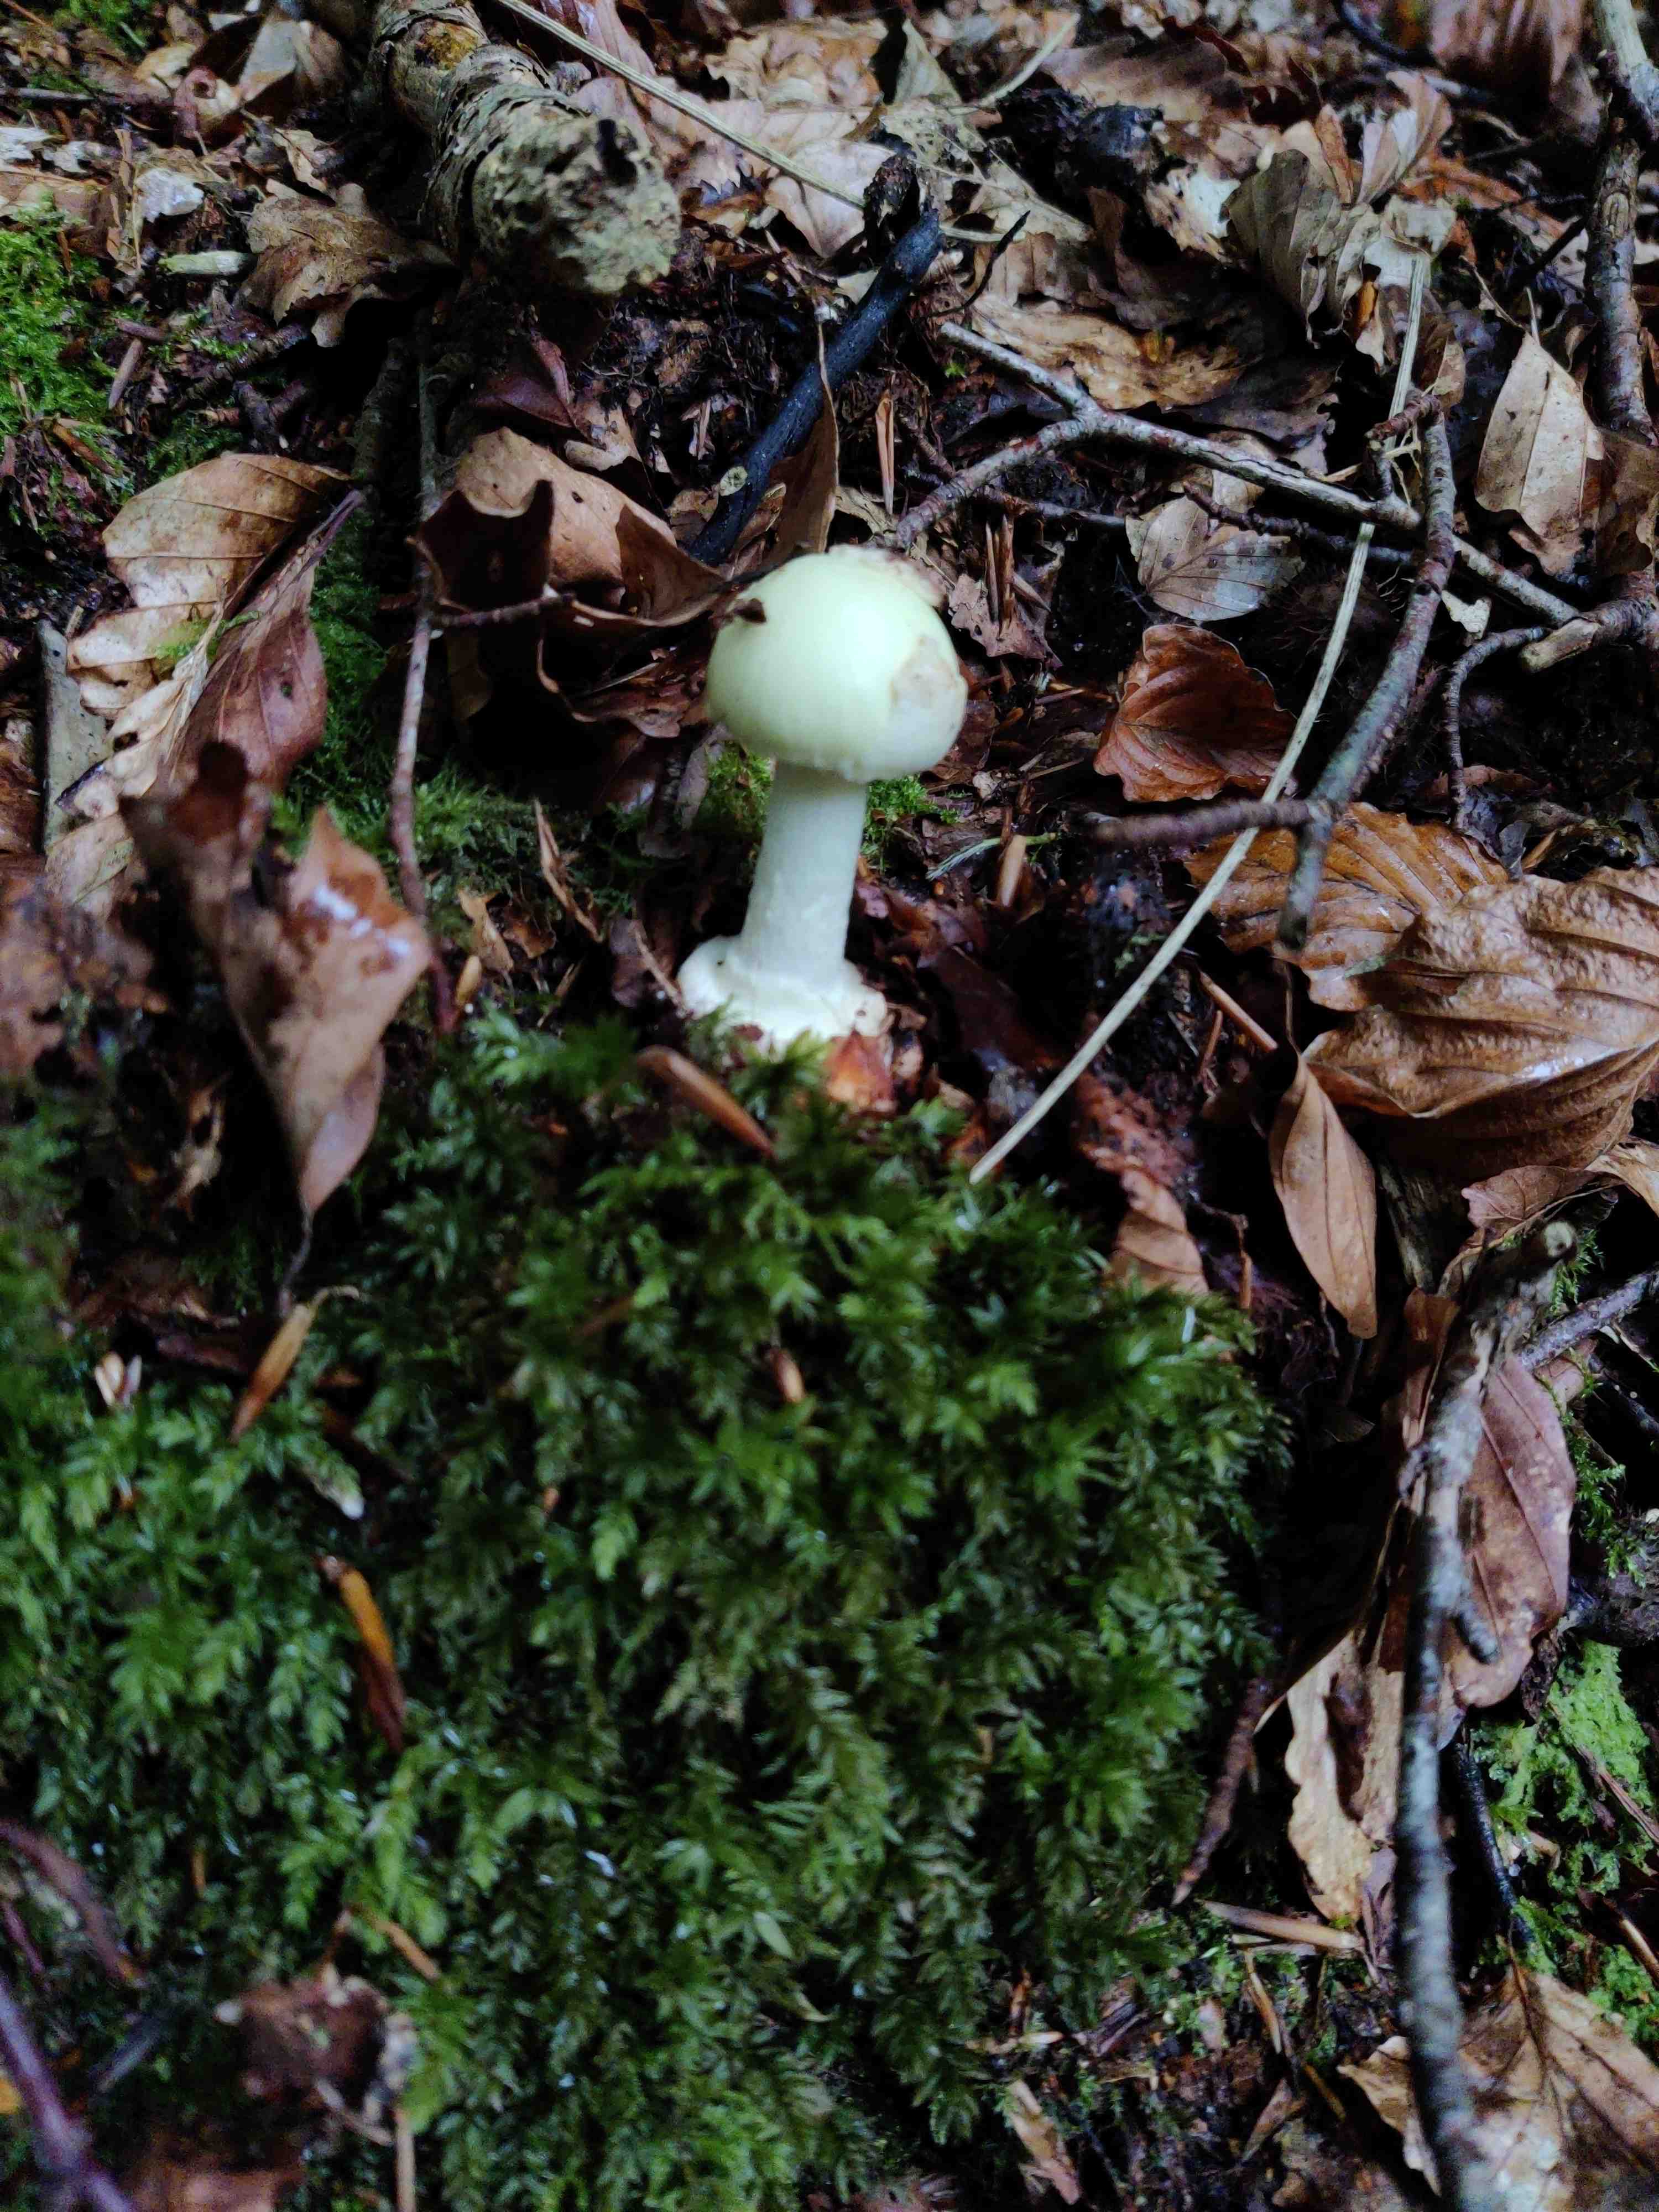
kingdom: Fungi
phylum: Basidiomycota
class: Agaricomycetes
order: Agaricales
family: Amanitaceae
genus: Amanita
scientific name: Amanita citrina
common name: kugleknoldet fluesvamp
